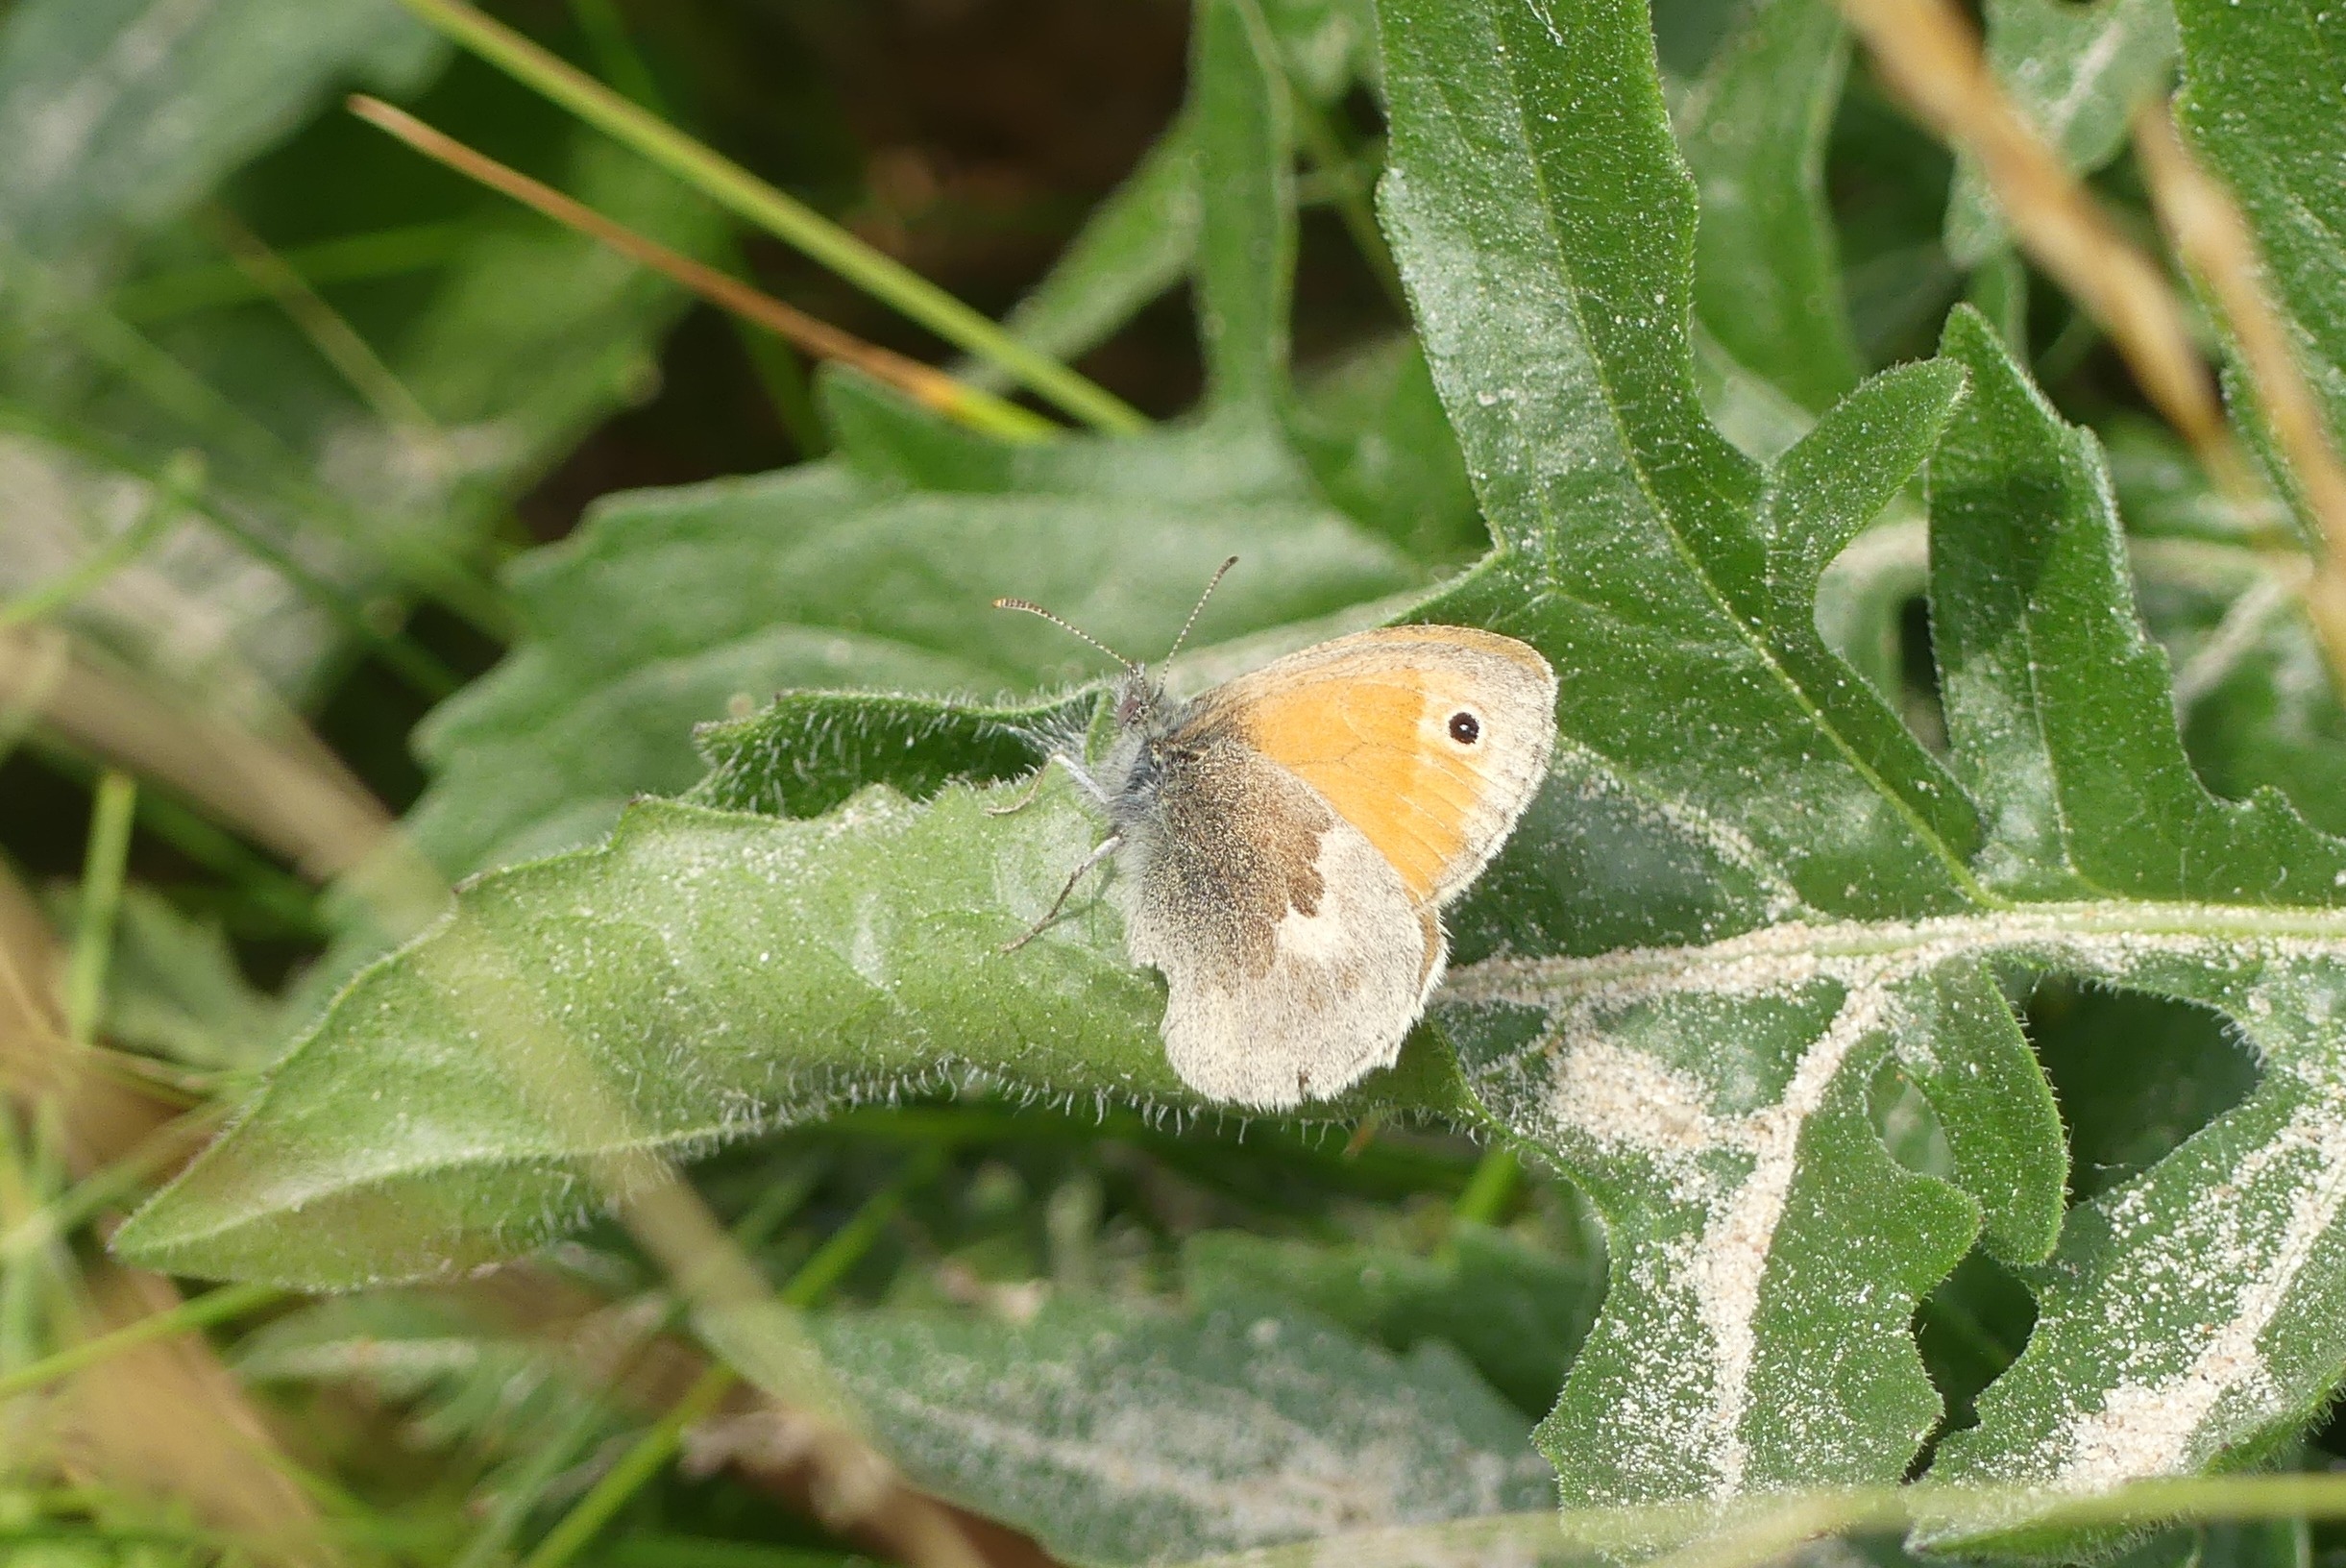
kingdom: Animalia
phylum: Arthropoda
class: Insecta
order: Lepidoptera
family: Nymphalidae
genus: Aglais
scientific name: Aglais urticae
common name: Nældens takvinge
